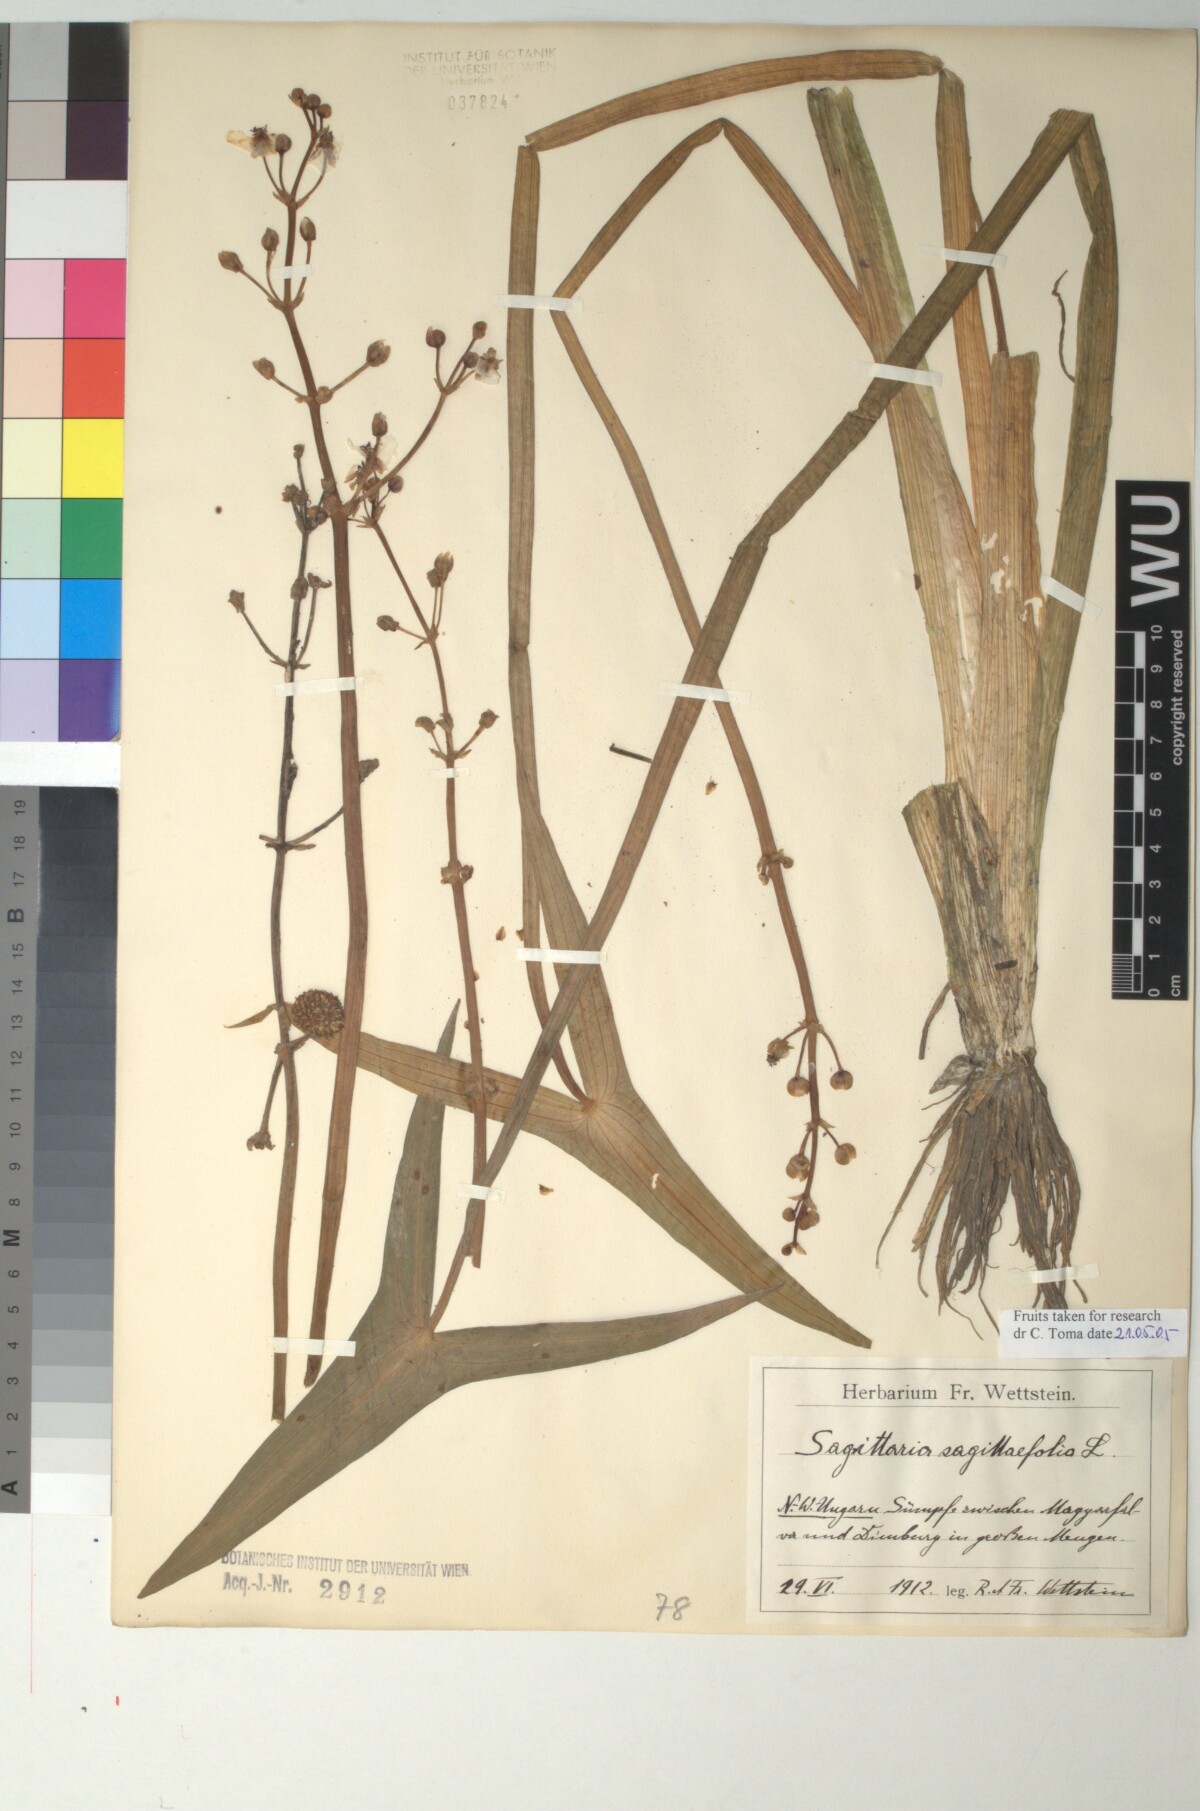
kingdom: Plantae
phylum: Tracheophyta
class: Liliopsida
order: Alismatales
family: Alismataceae
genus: Sagittaria
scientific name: Sagittaria sagittifolia
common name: Arrowhead
